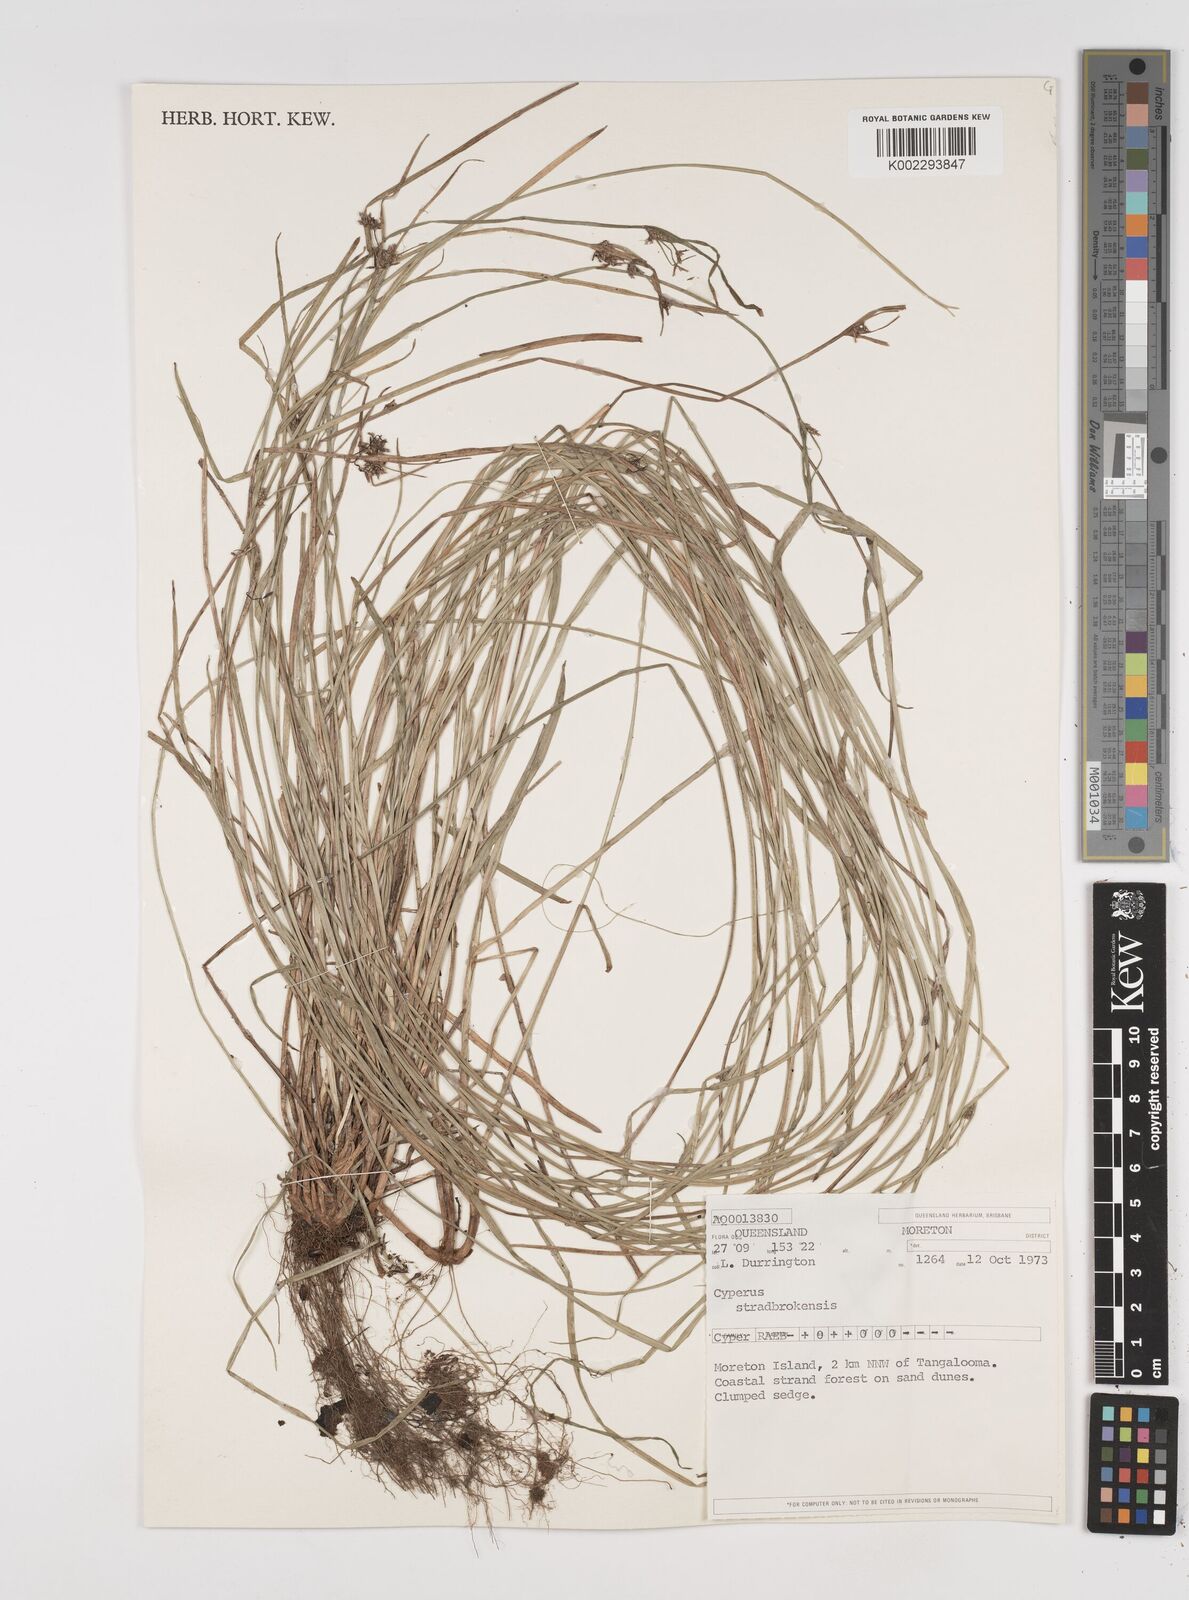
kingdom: Plantae
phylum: Tracheophyta
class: Liliopsida
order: Poales
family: Cyperaceae
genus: Cyperus
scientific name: Cyperus stradbrokensis
